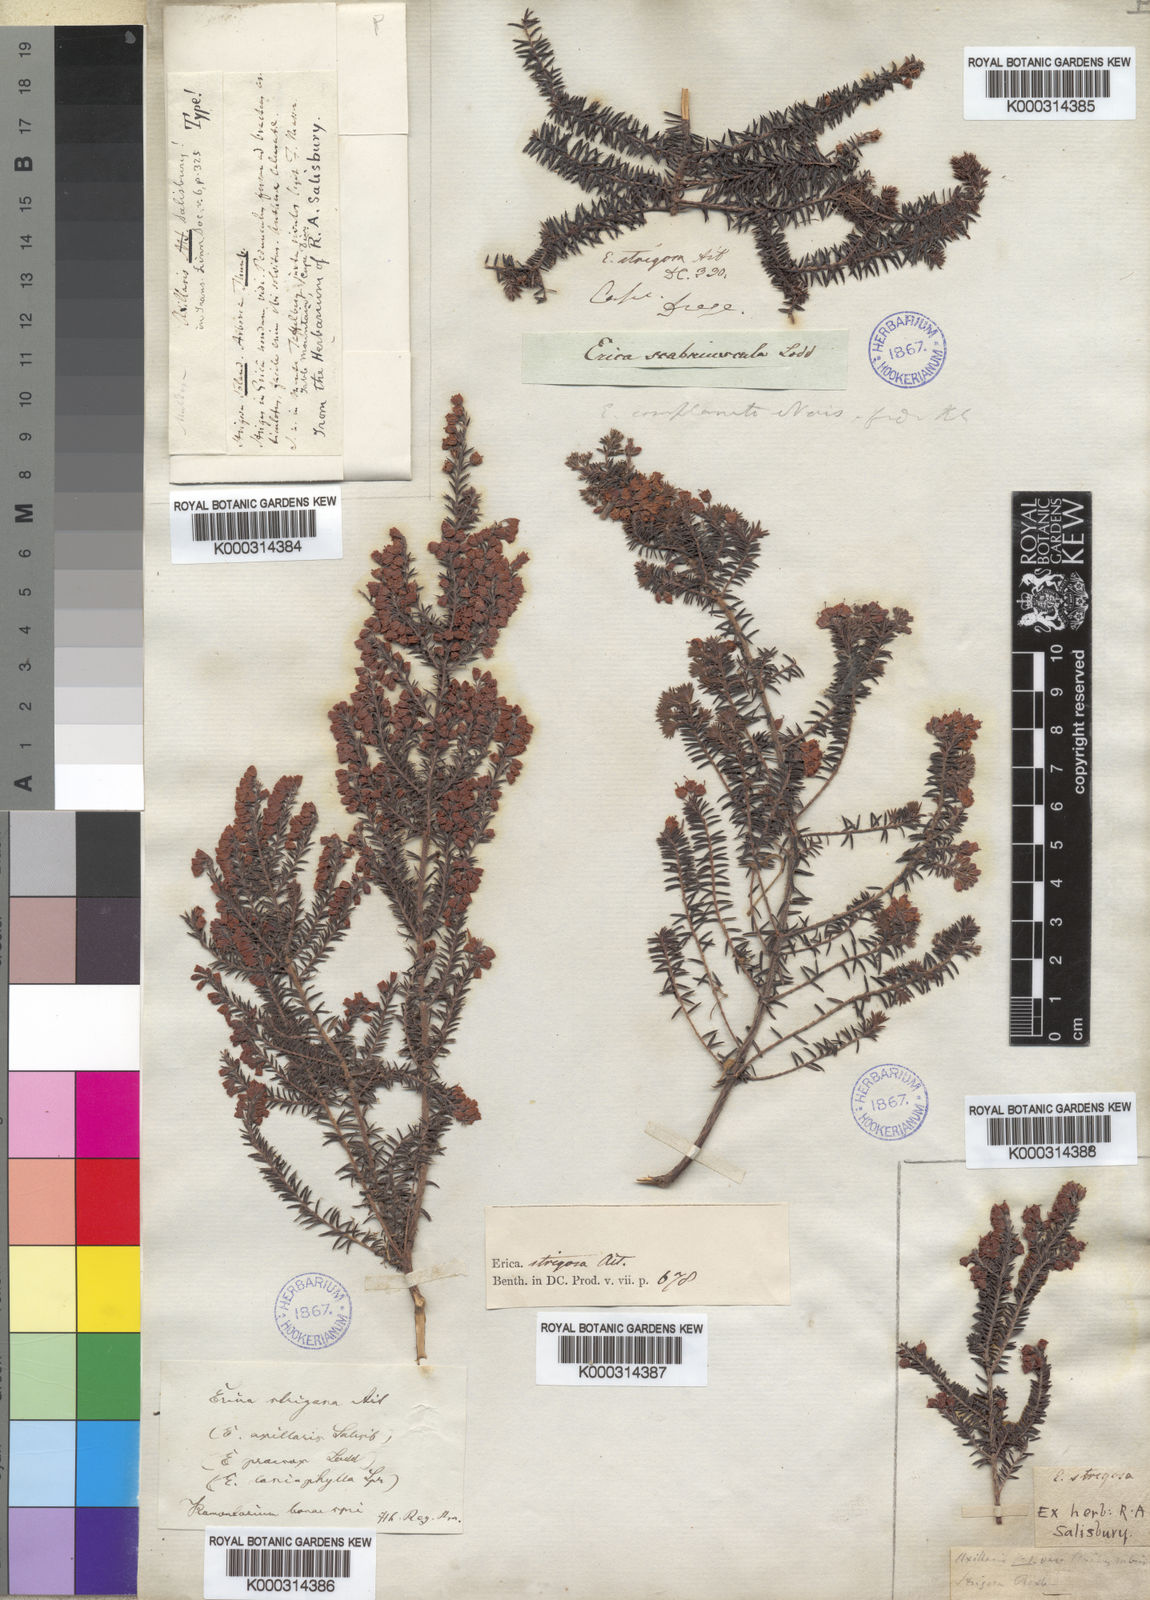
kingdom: Plantae
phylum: Tracheophyta
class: Magnoliopsida
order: Ericales
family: Ericaceae
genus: Erica
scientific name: Erica
